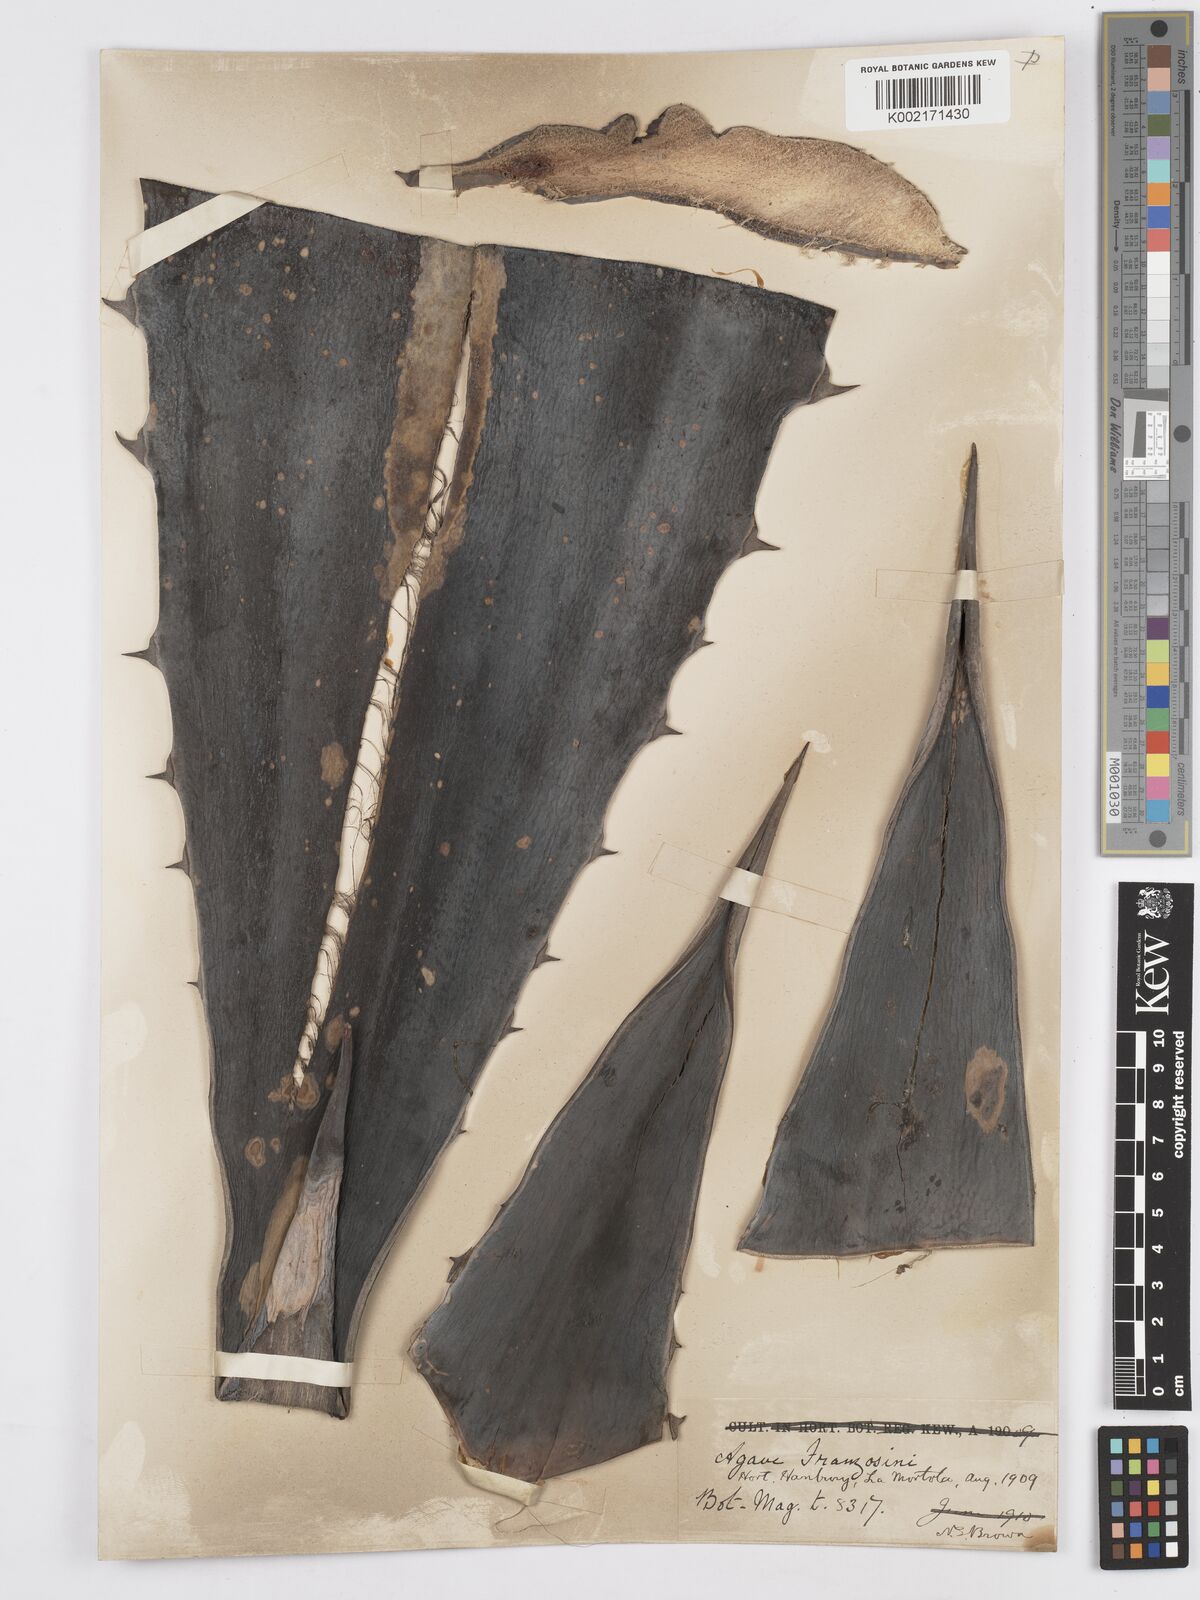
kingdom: Plantae
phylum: Tracheophyta
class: Liliopsida
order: Asparagales
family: Asparagaceae
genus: Agave
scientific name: Agave americana
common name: Centuryplant
